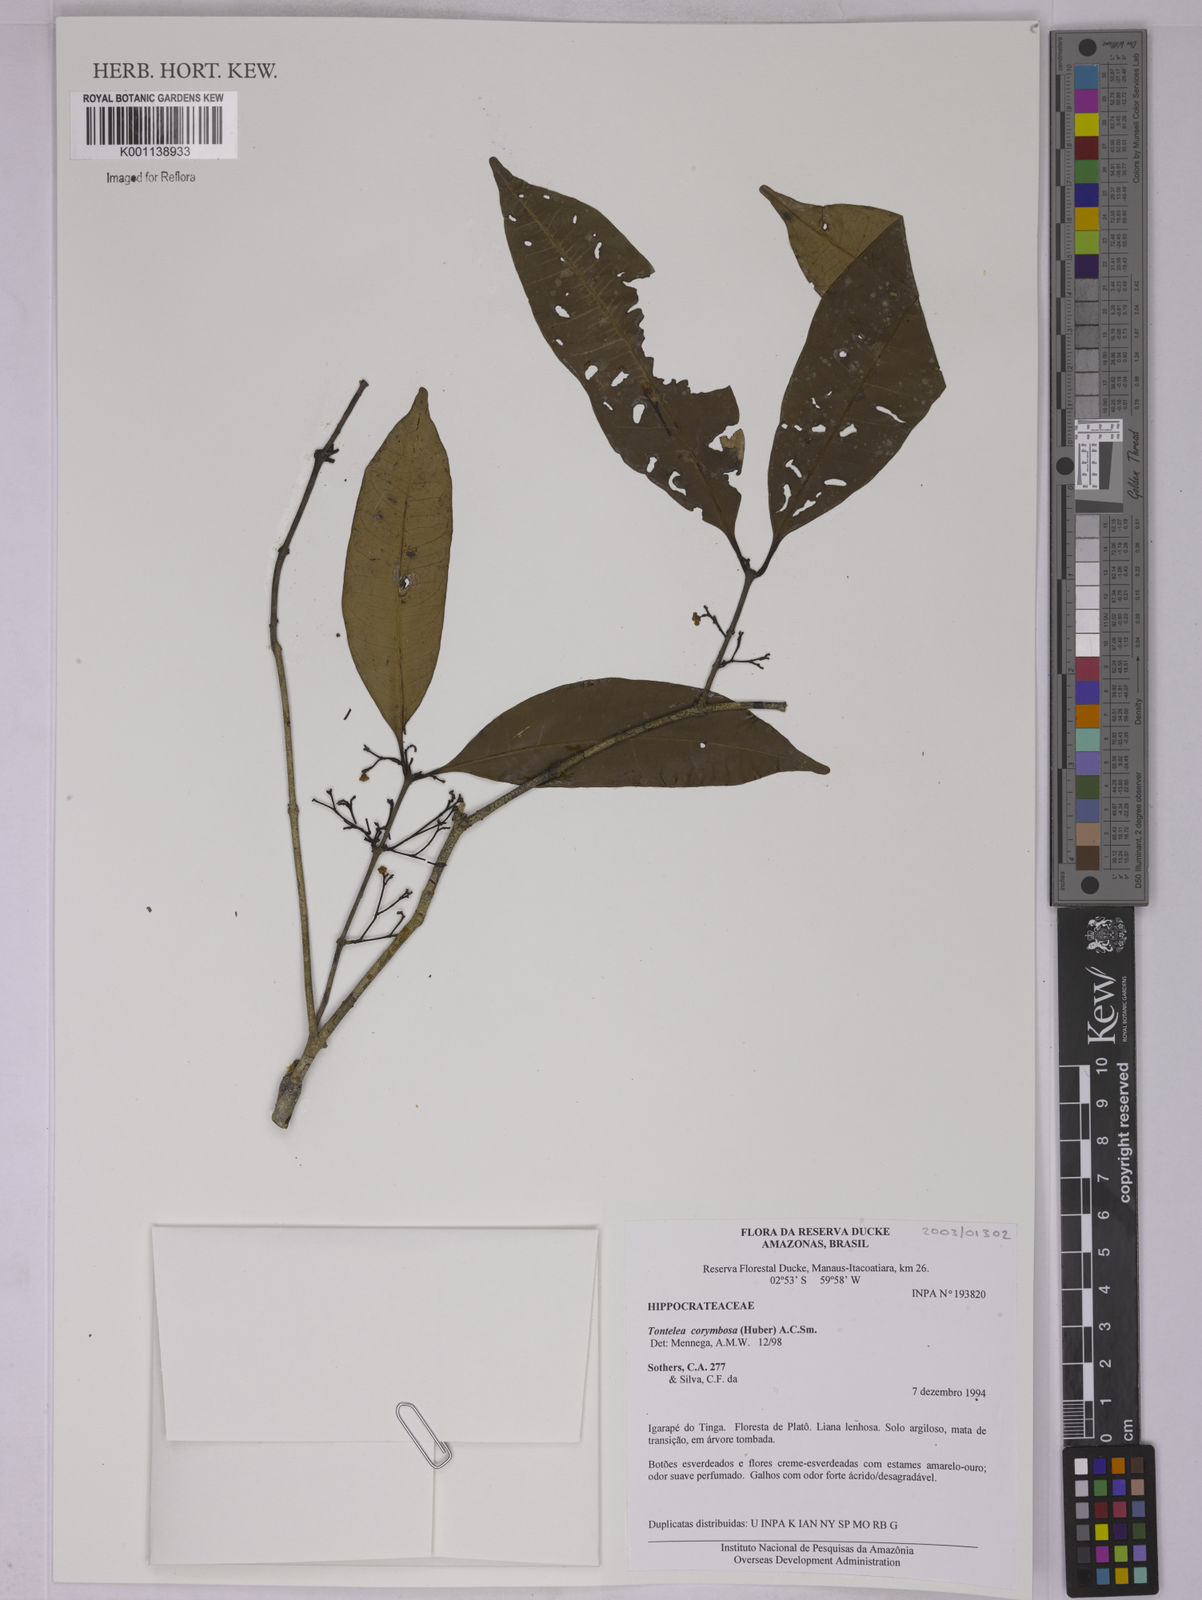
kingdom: Plantae
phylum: Tracheophyta
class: Magnoliopsida
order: Celastrales
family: Celastraceae
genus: Tontelea
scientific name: Tontelea corymbosa
